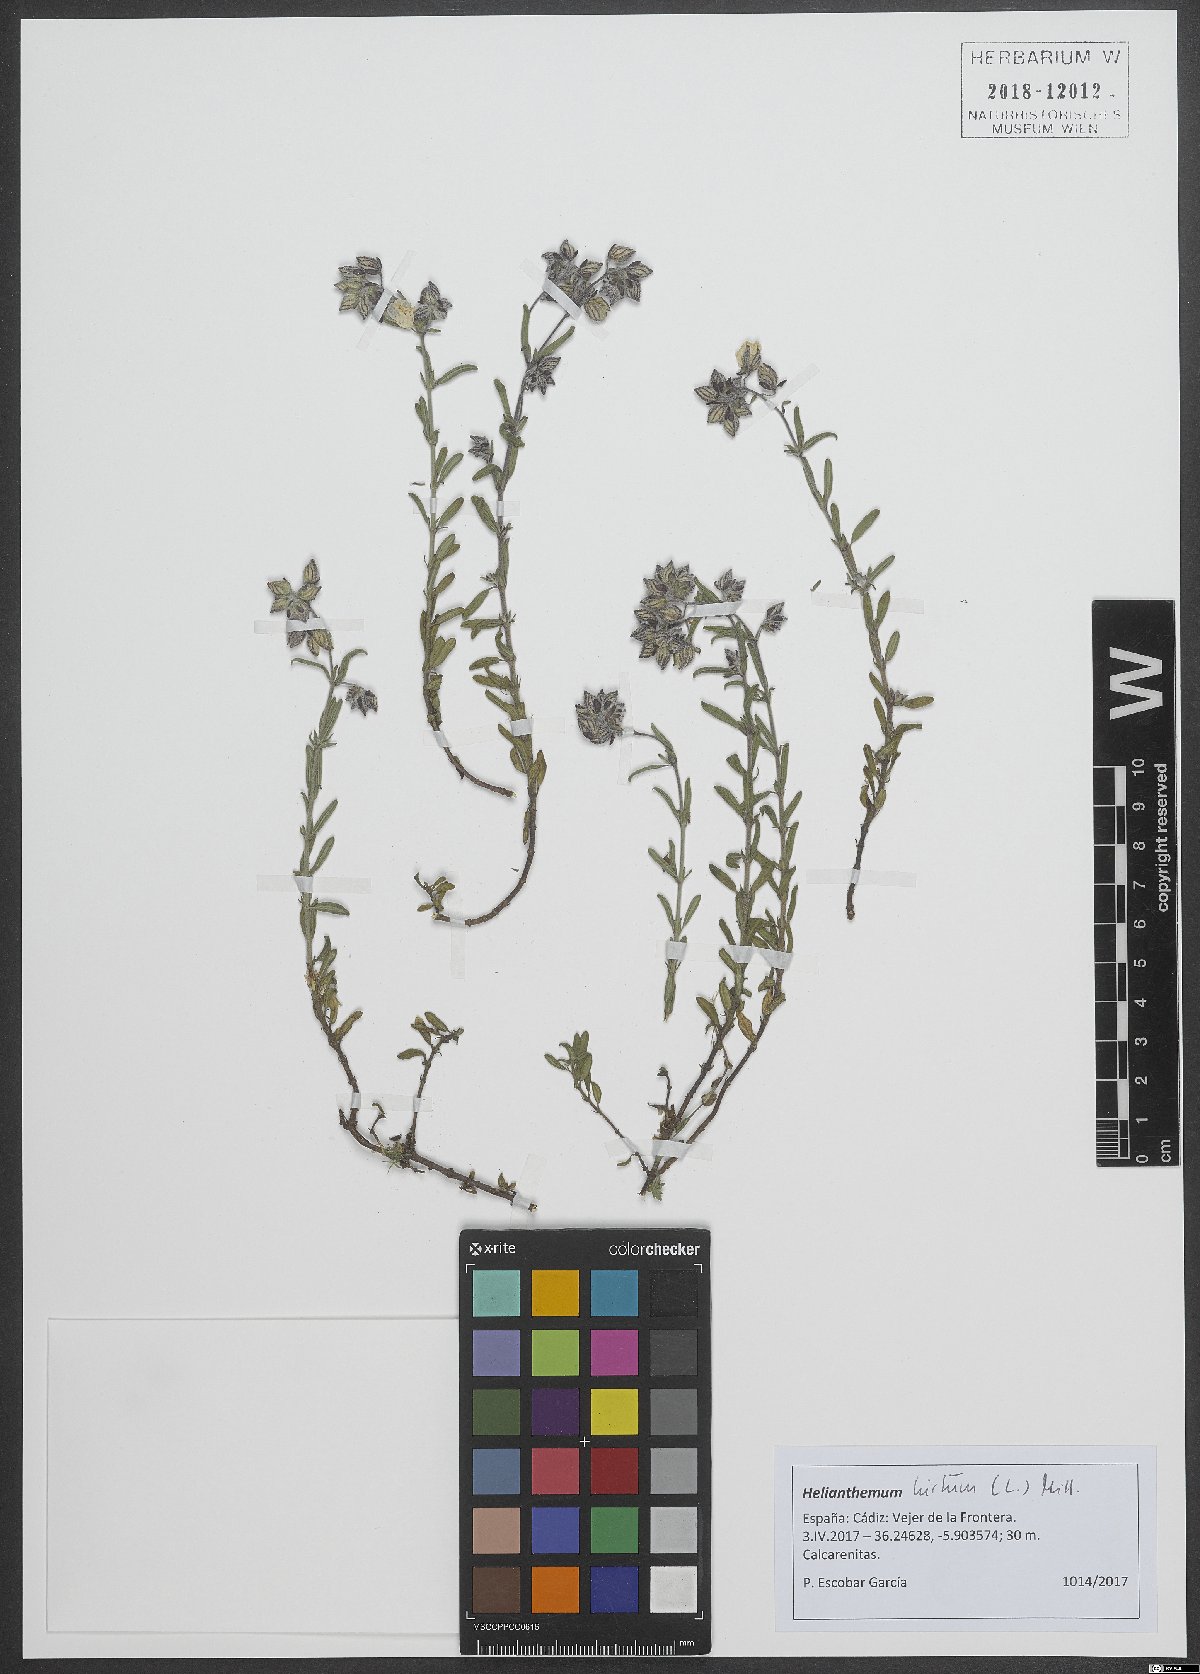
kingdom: Plantae
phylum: Tracheophyta
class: Magnoliopsida
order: Malvales
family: Cistaceae
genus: Helianthemum
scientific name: Helianthemum hirtum
